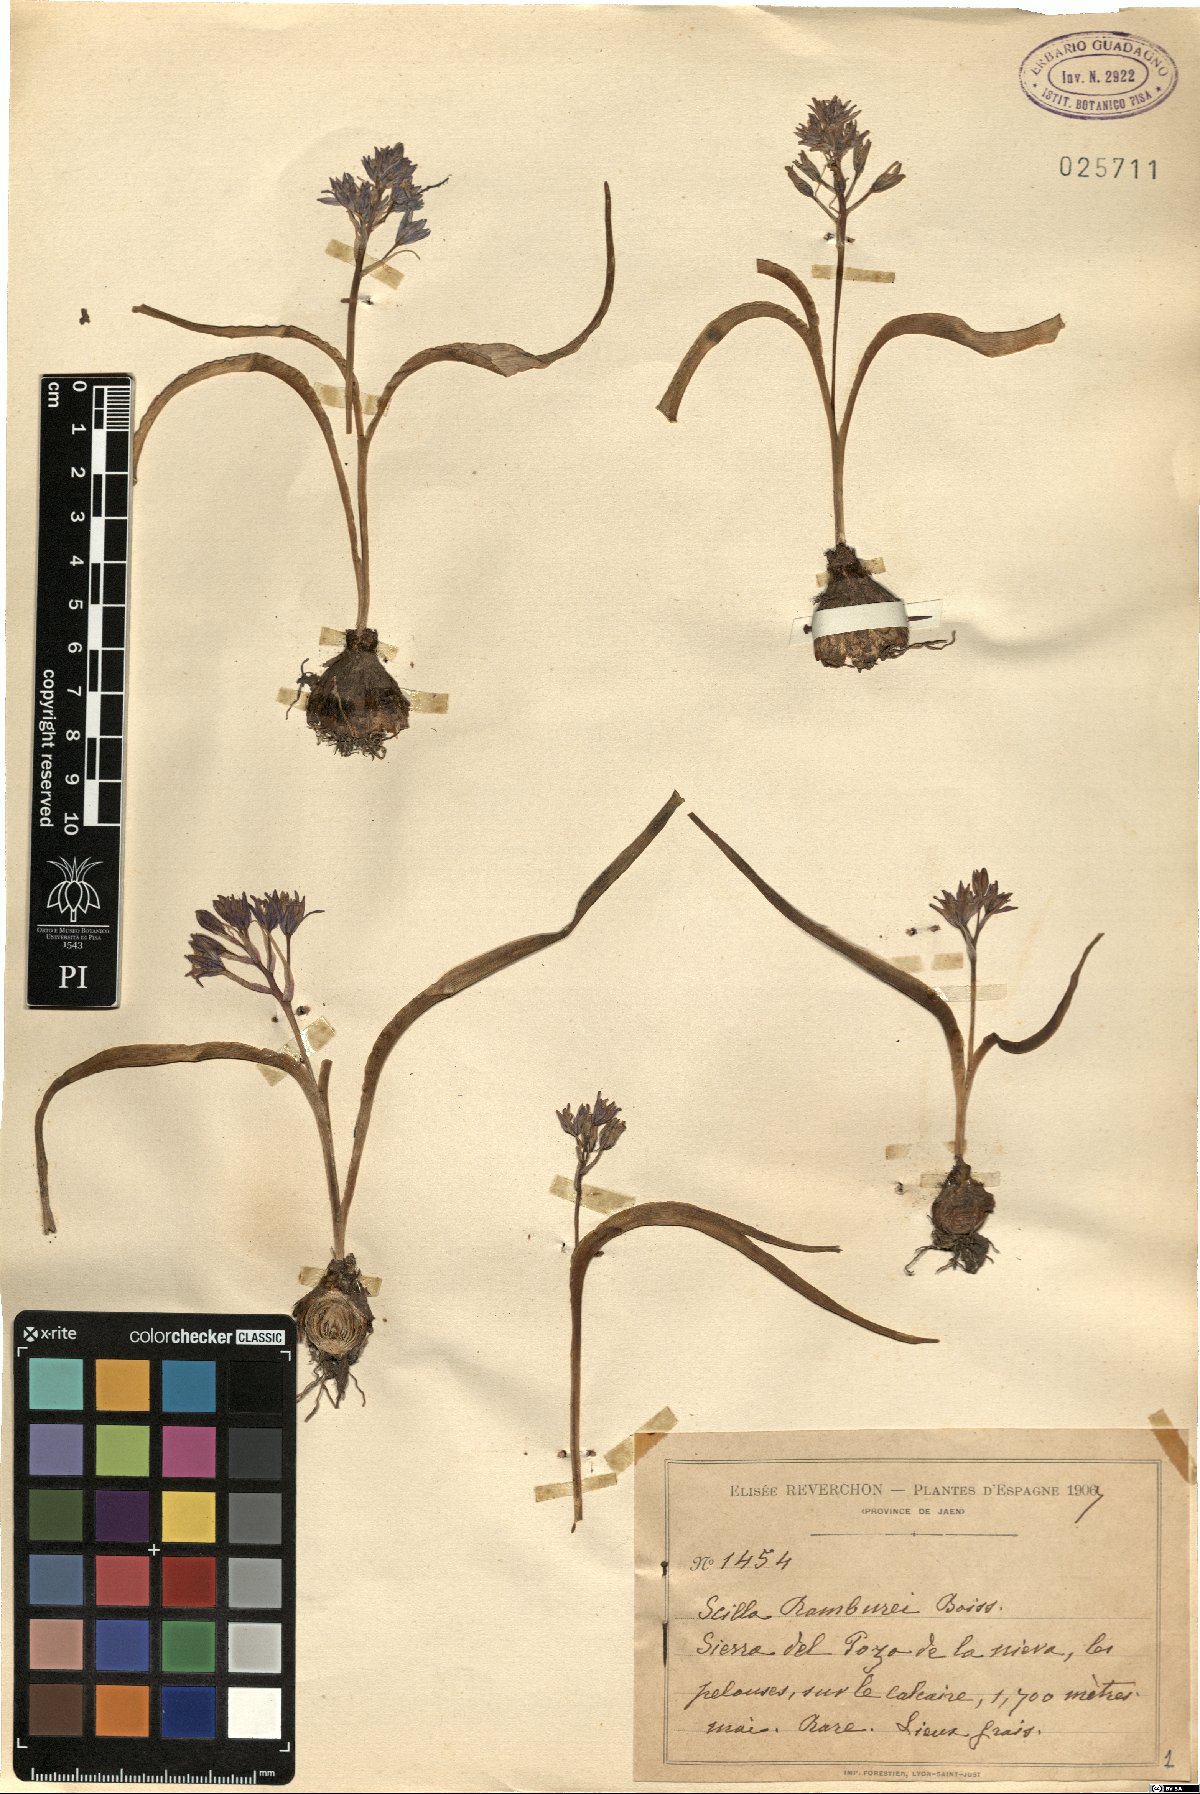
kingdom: Plantae
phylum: Tracheophyta
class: Liliopsida
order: Asparagales
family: Asparagaceae
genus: Scilla
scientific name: Scilla verna
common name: Spring squill
